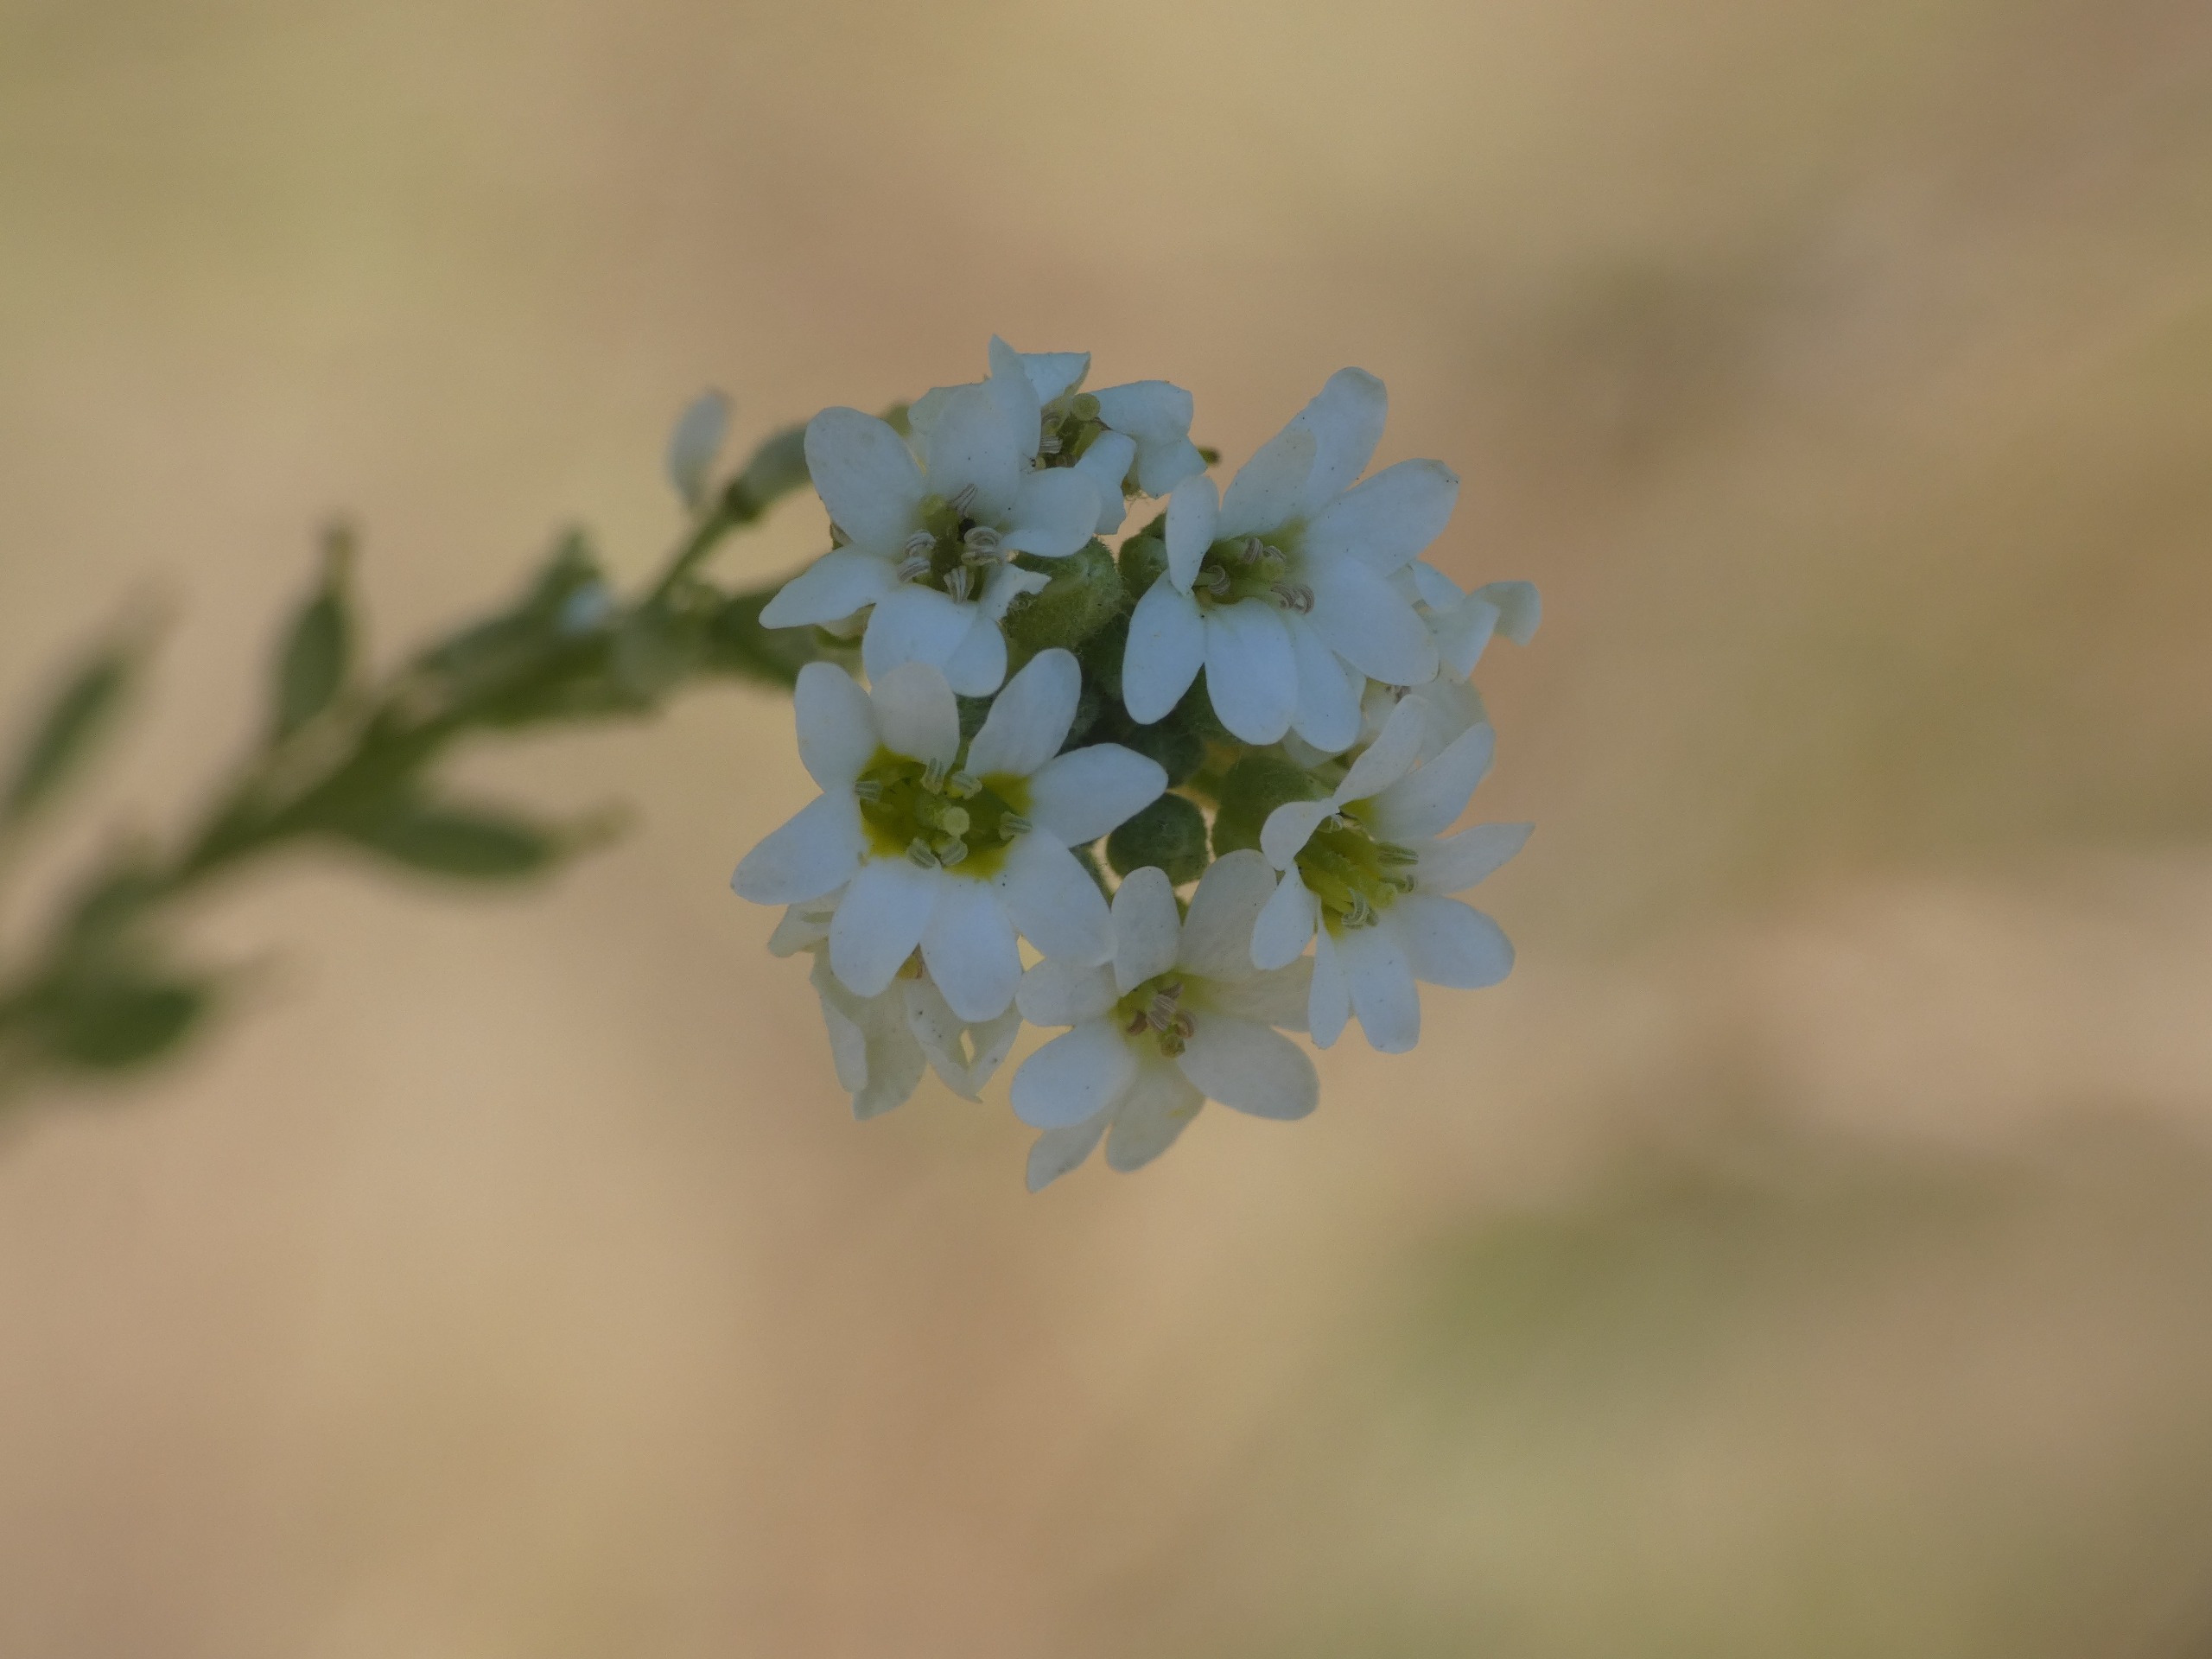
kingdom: Plantae
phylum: Tracheophyta
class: Magnoliopsida
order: Brassicales
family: Brassicaceae
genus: Berteroa
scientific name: Berteroa incana
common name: Kløvplade
